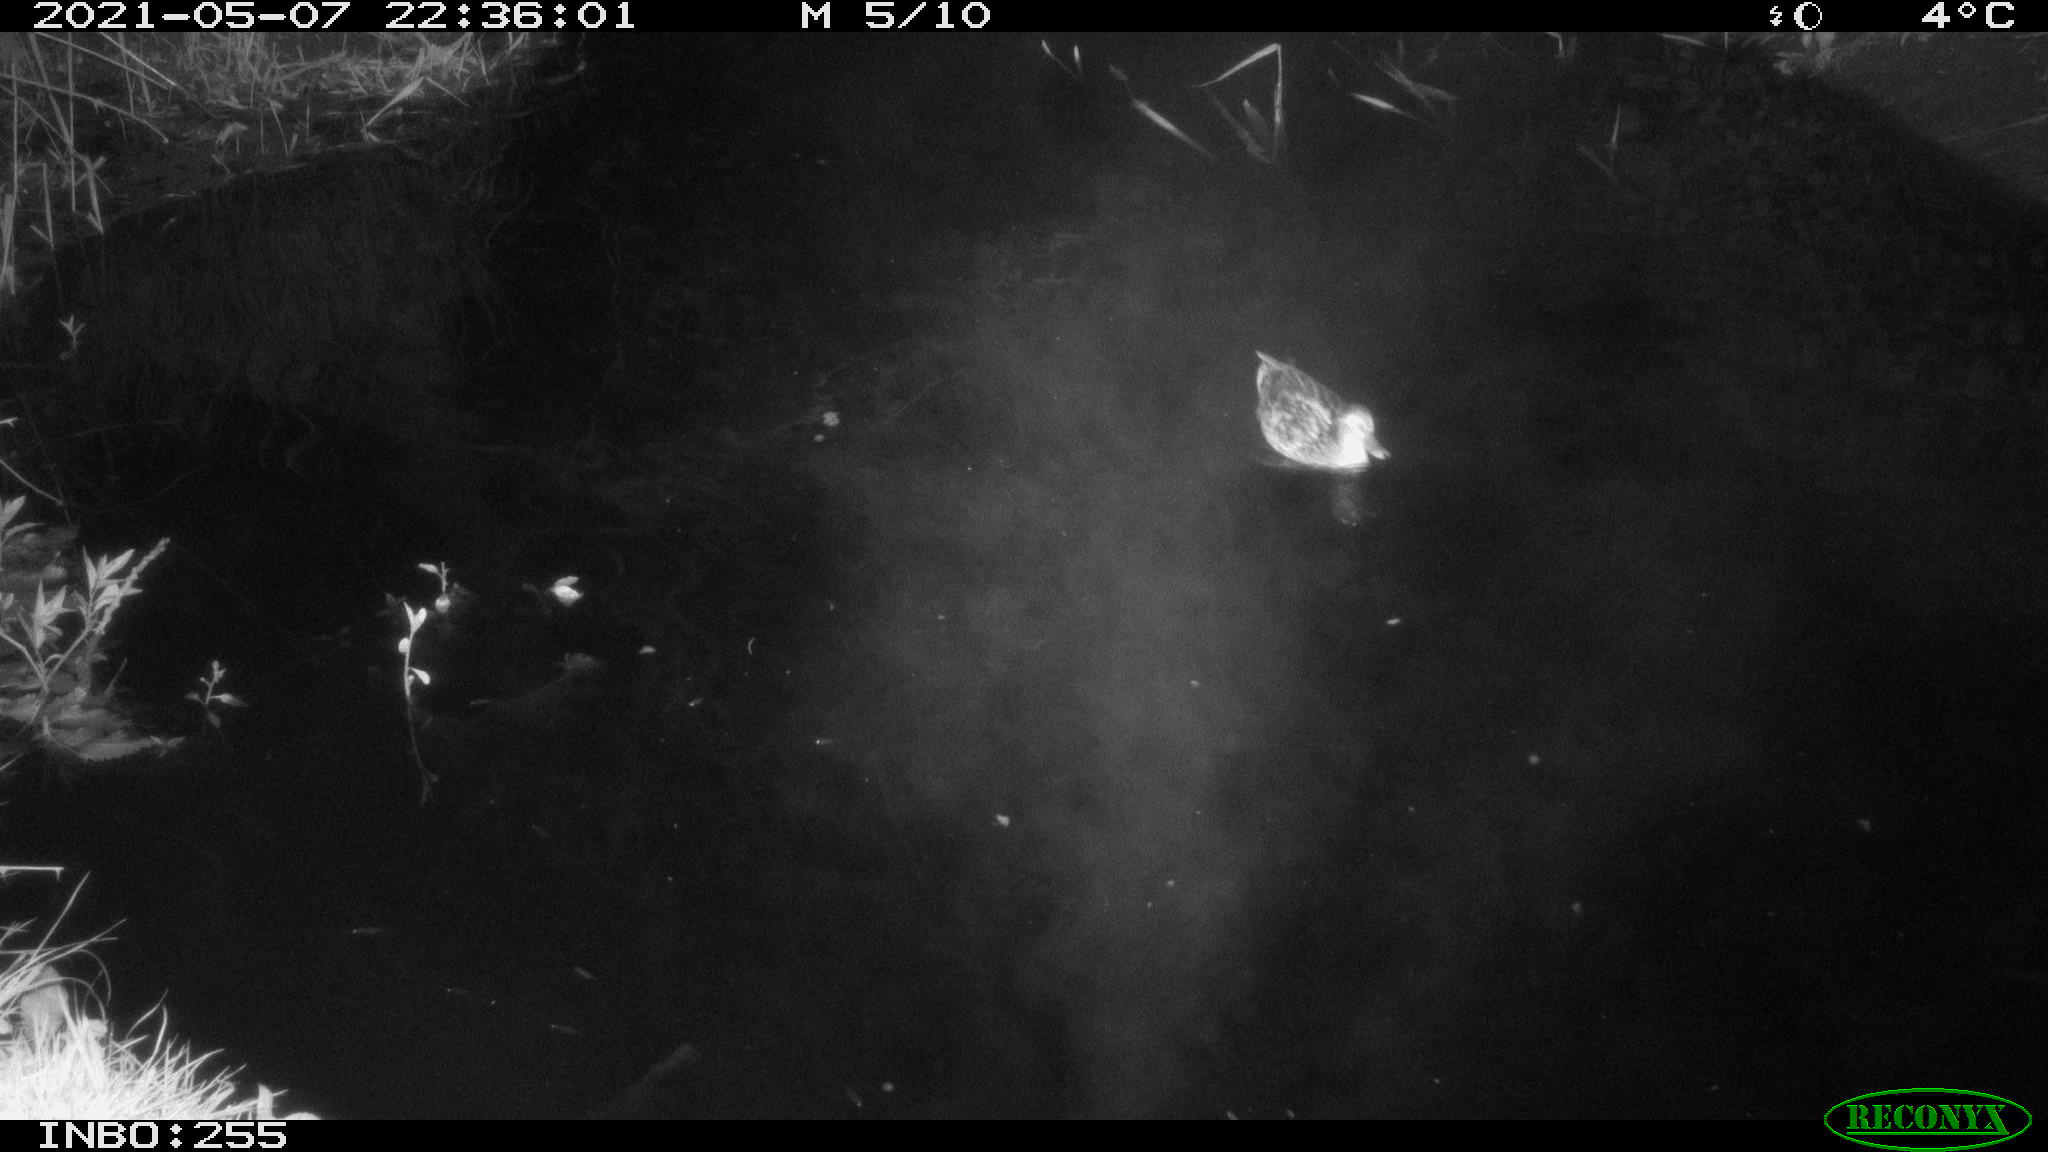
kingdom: Animalia
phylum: Chordata
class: Aves
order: Anseriformes
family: Anatidae
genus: Anas
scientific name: Anas platyrhynchos
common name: Mallard
